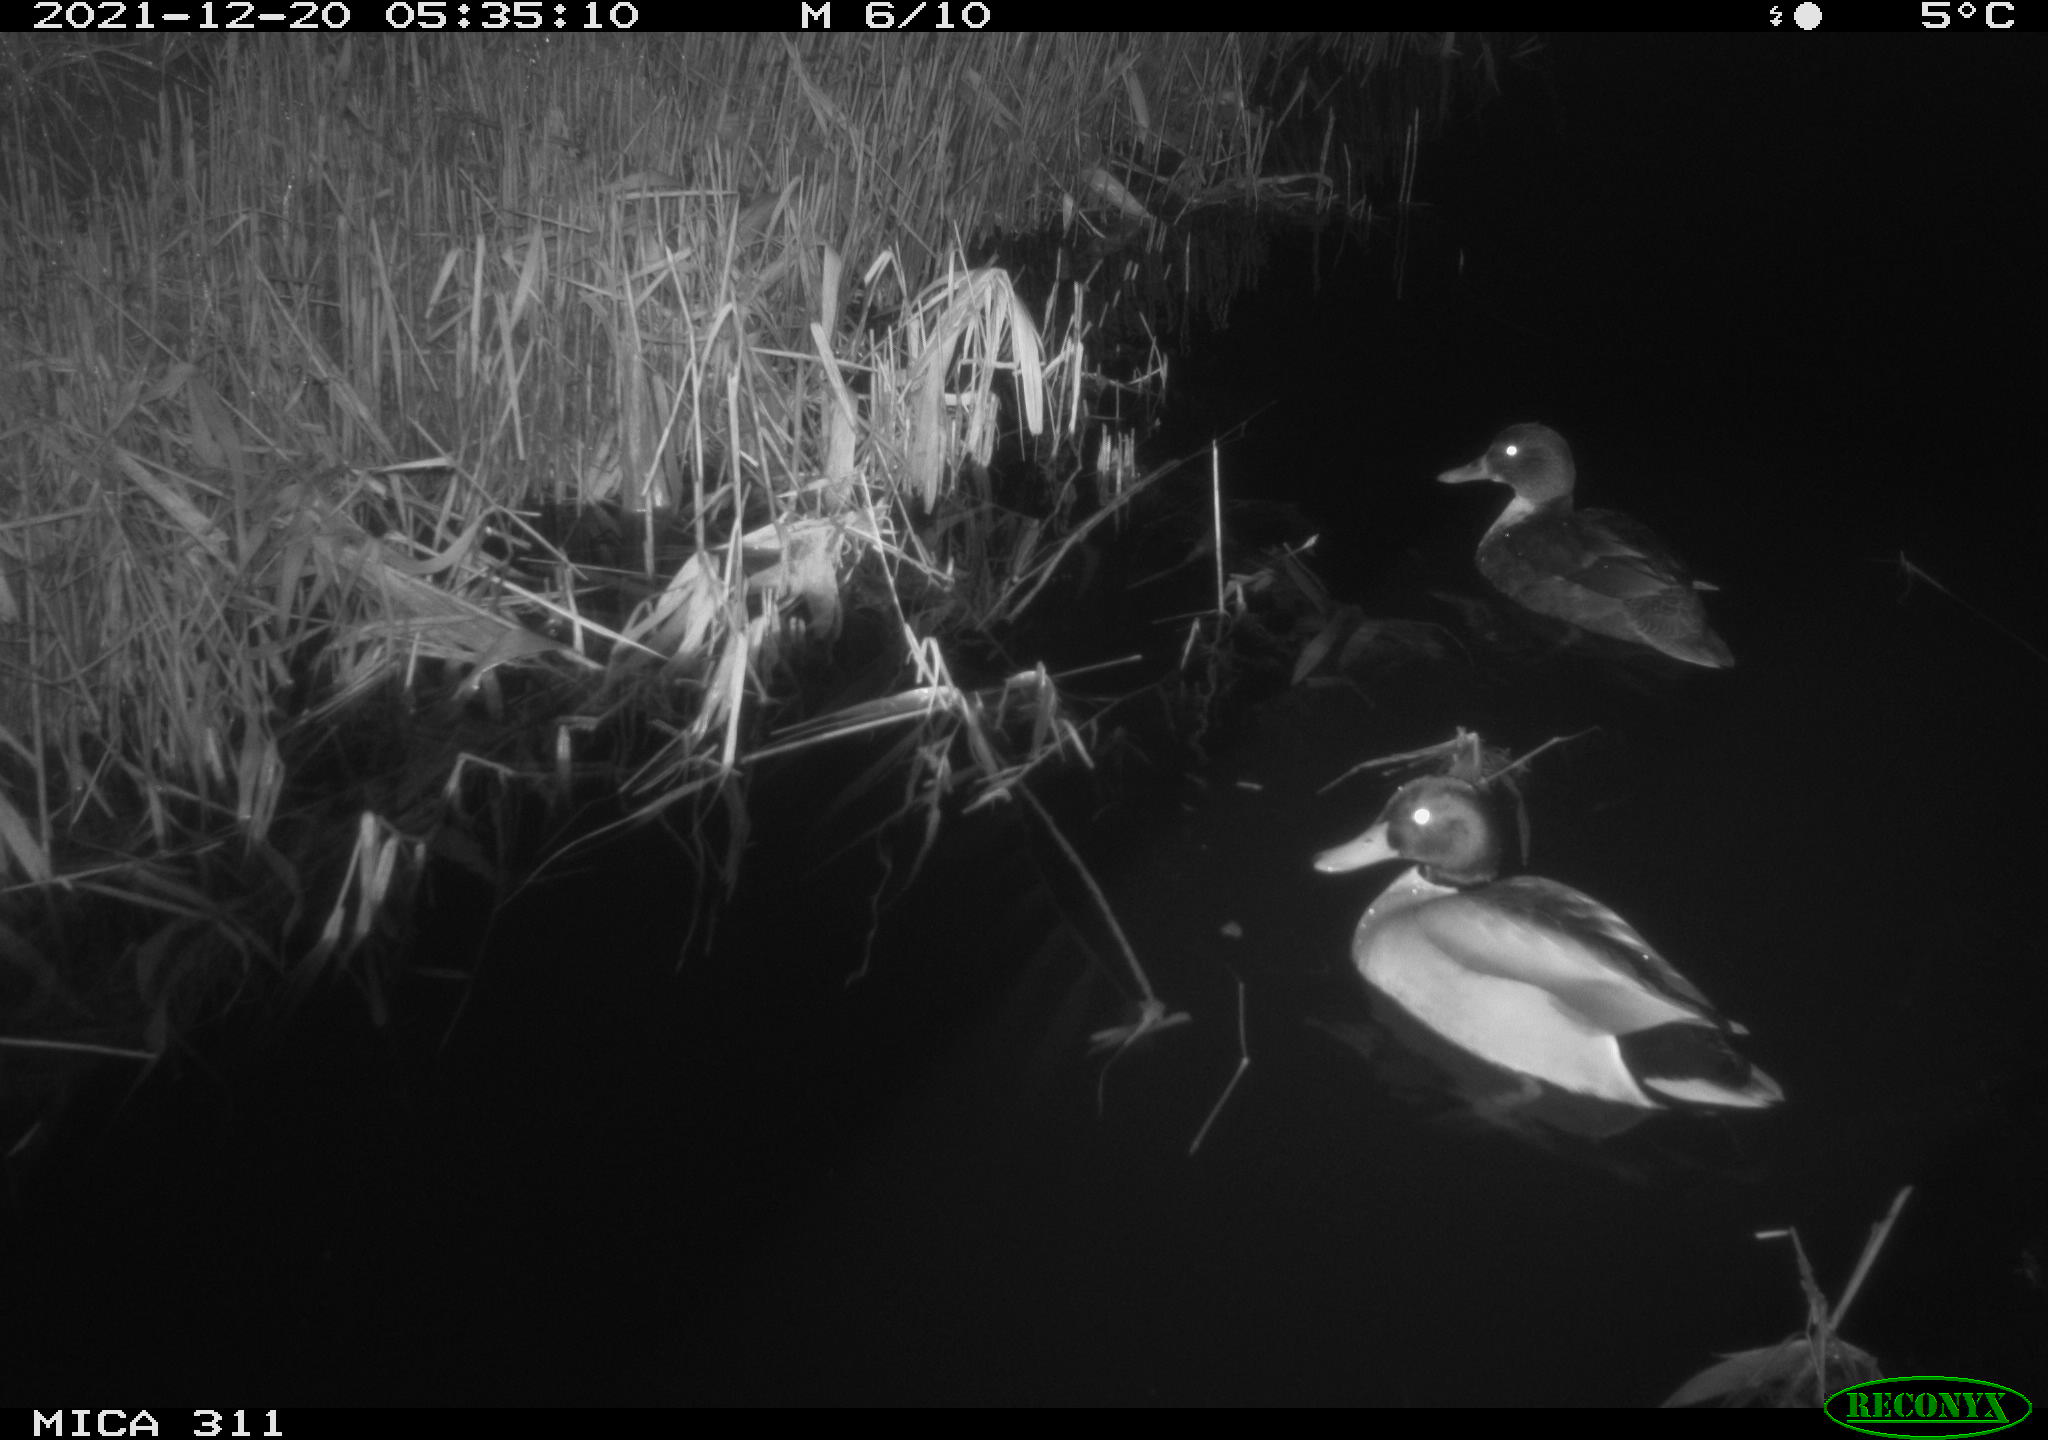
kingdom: Animalia
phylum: Chordata
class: Aves
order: Anseriformes
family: Anatidae
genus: Anas
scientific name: Anas platyrhynchos
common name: Mallard
